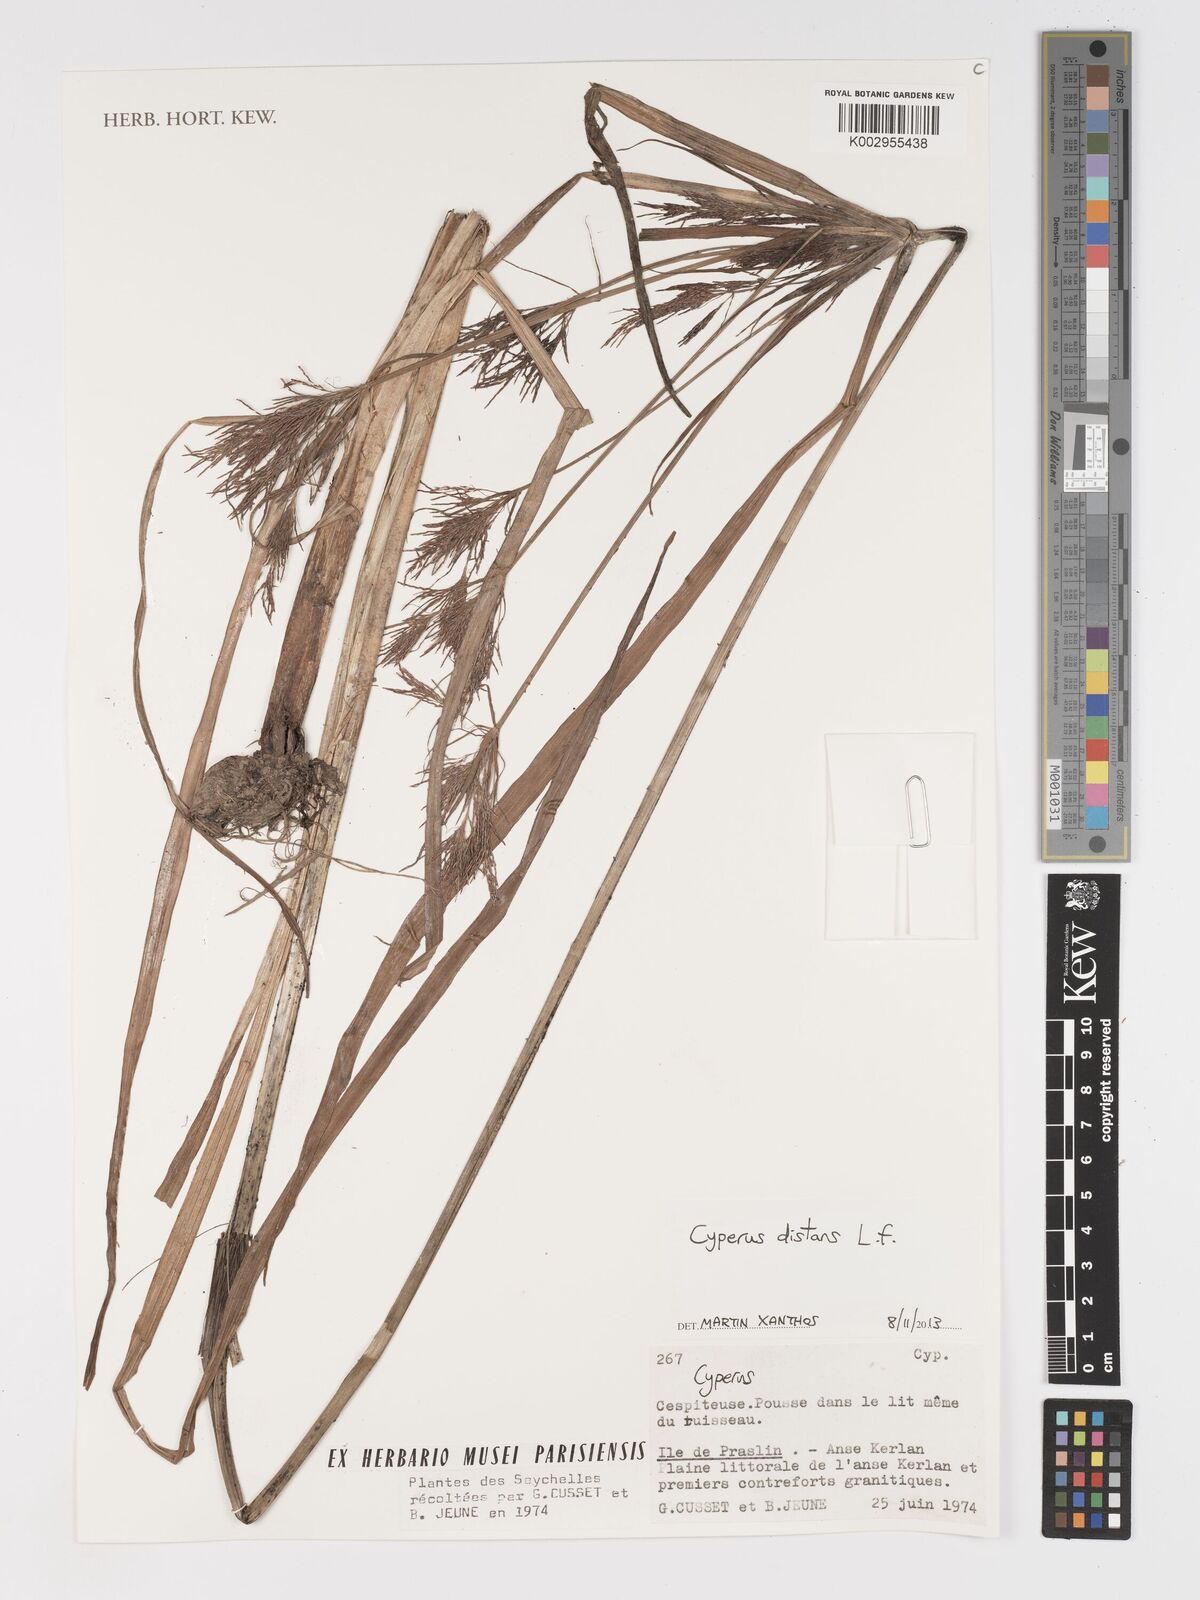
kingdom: Plantae
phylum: Tracheophyta
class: Liliopsida
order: Poales
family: Cyperaceae
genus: Cyperus
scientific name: Cyperus distans
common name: Slender cyperus
